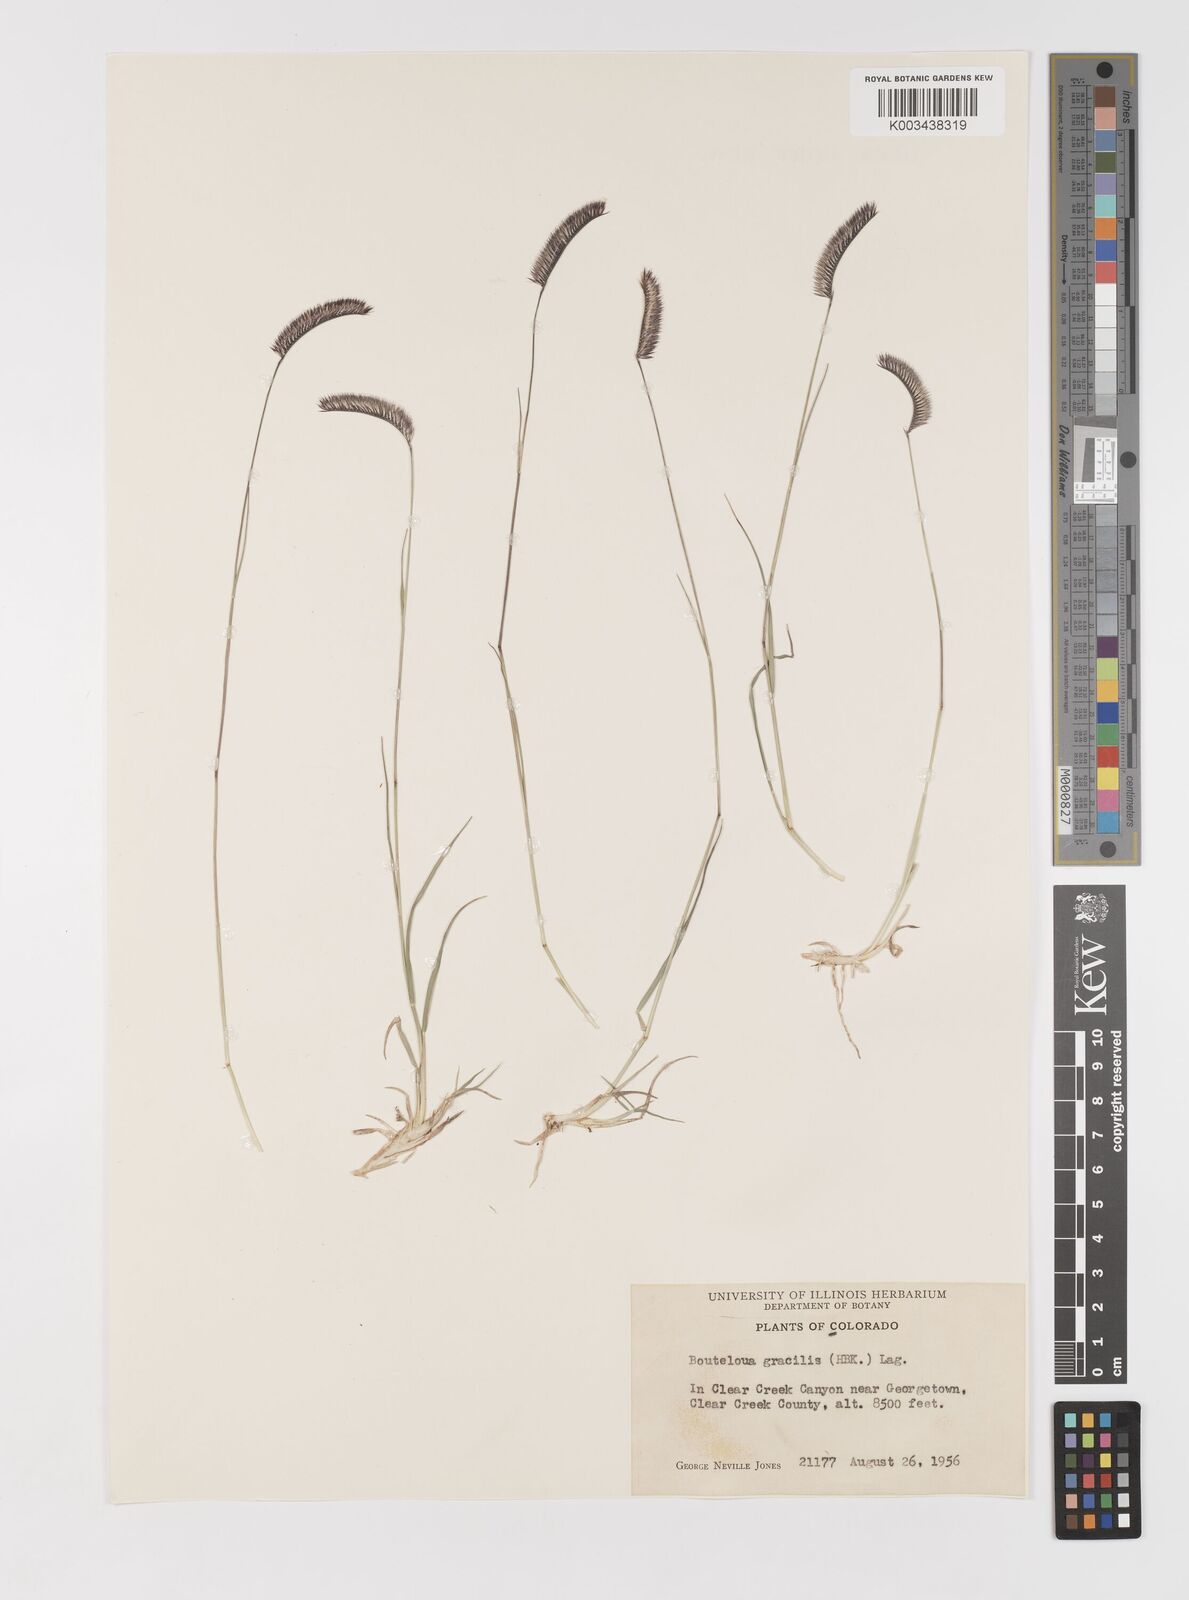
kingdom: Plantae
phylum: Tracheophyta
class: Liliopsida
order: Poales
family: Poaceae
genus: Bouteloua
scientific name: Bouteloua
